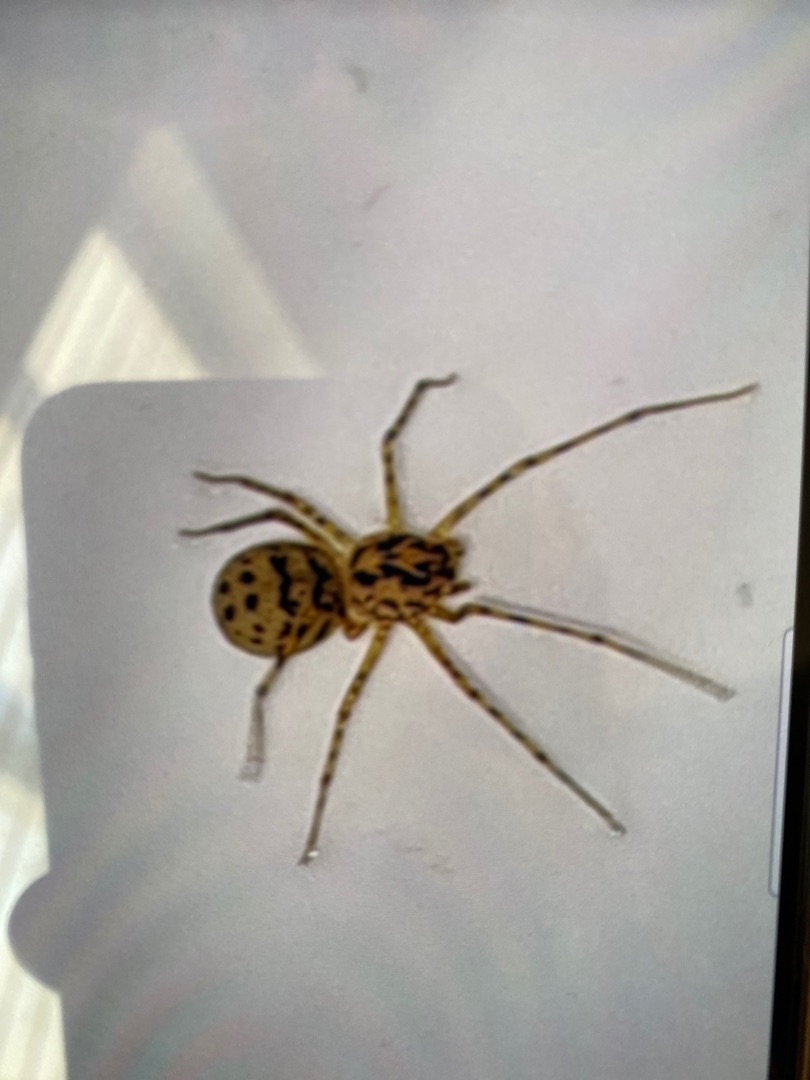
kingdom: Animalia
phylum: Arthropoda
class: Arachnida
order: Araneae
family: Scytodidae
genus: Scytodes
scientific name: Scytodes thoracica
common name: Spytteedderkop
